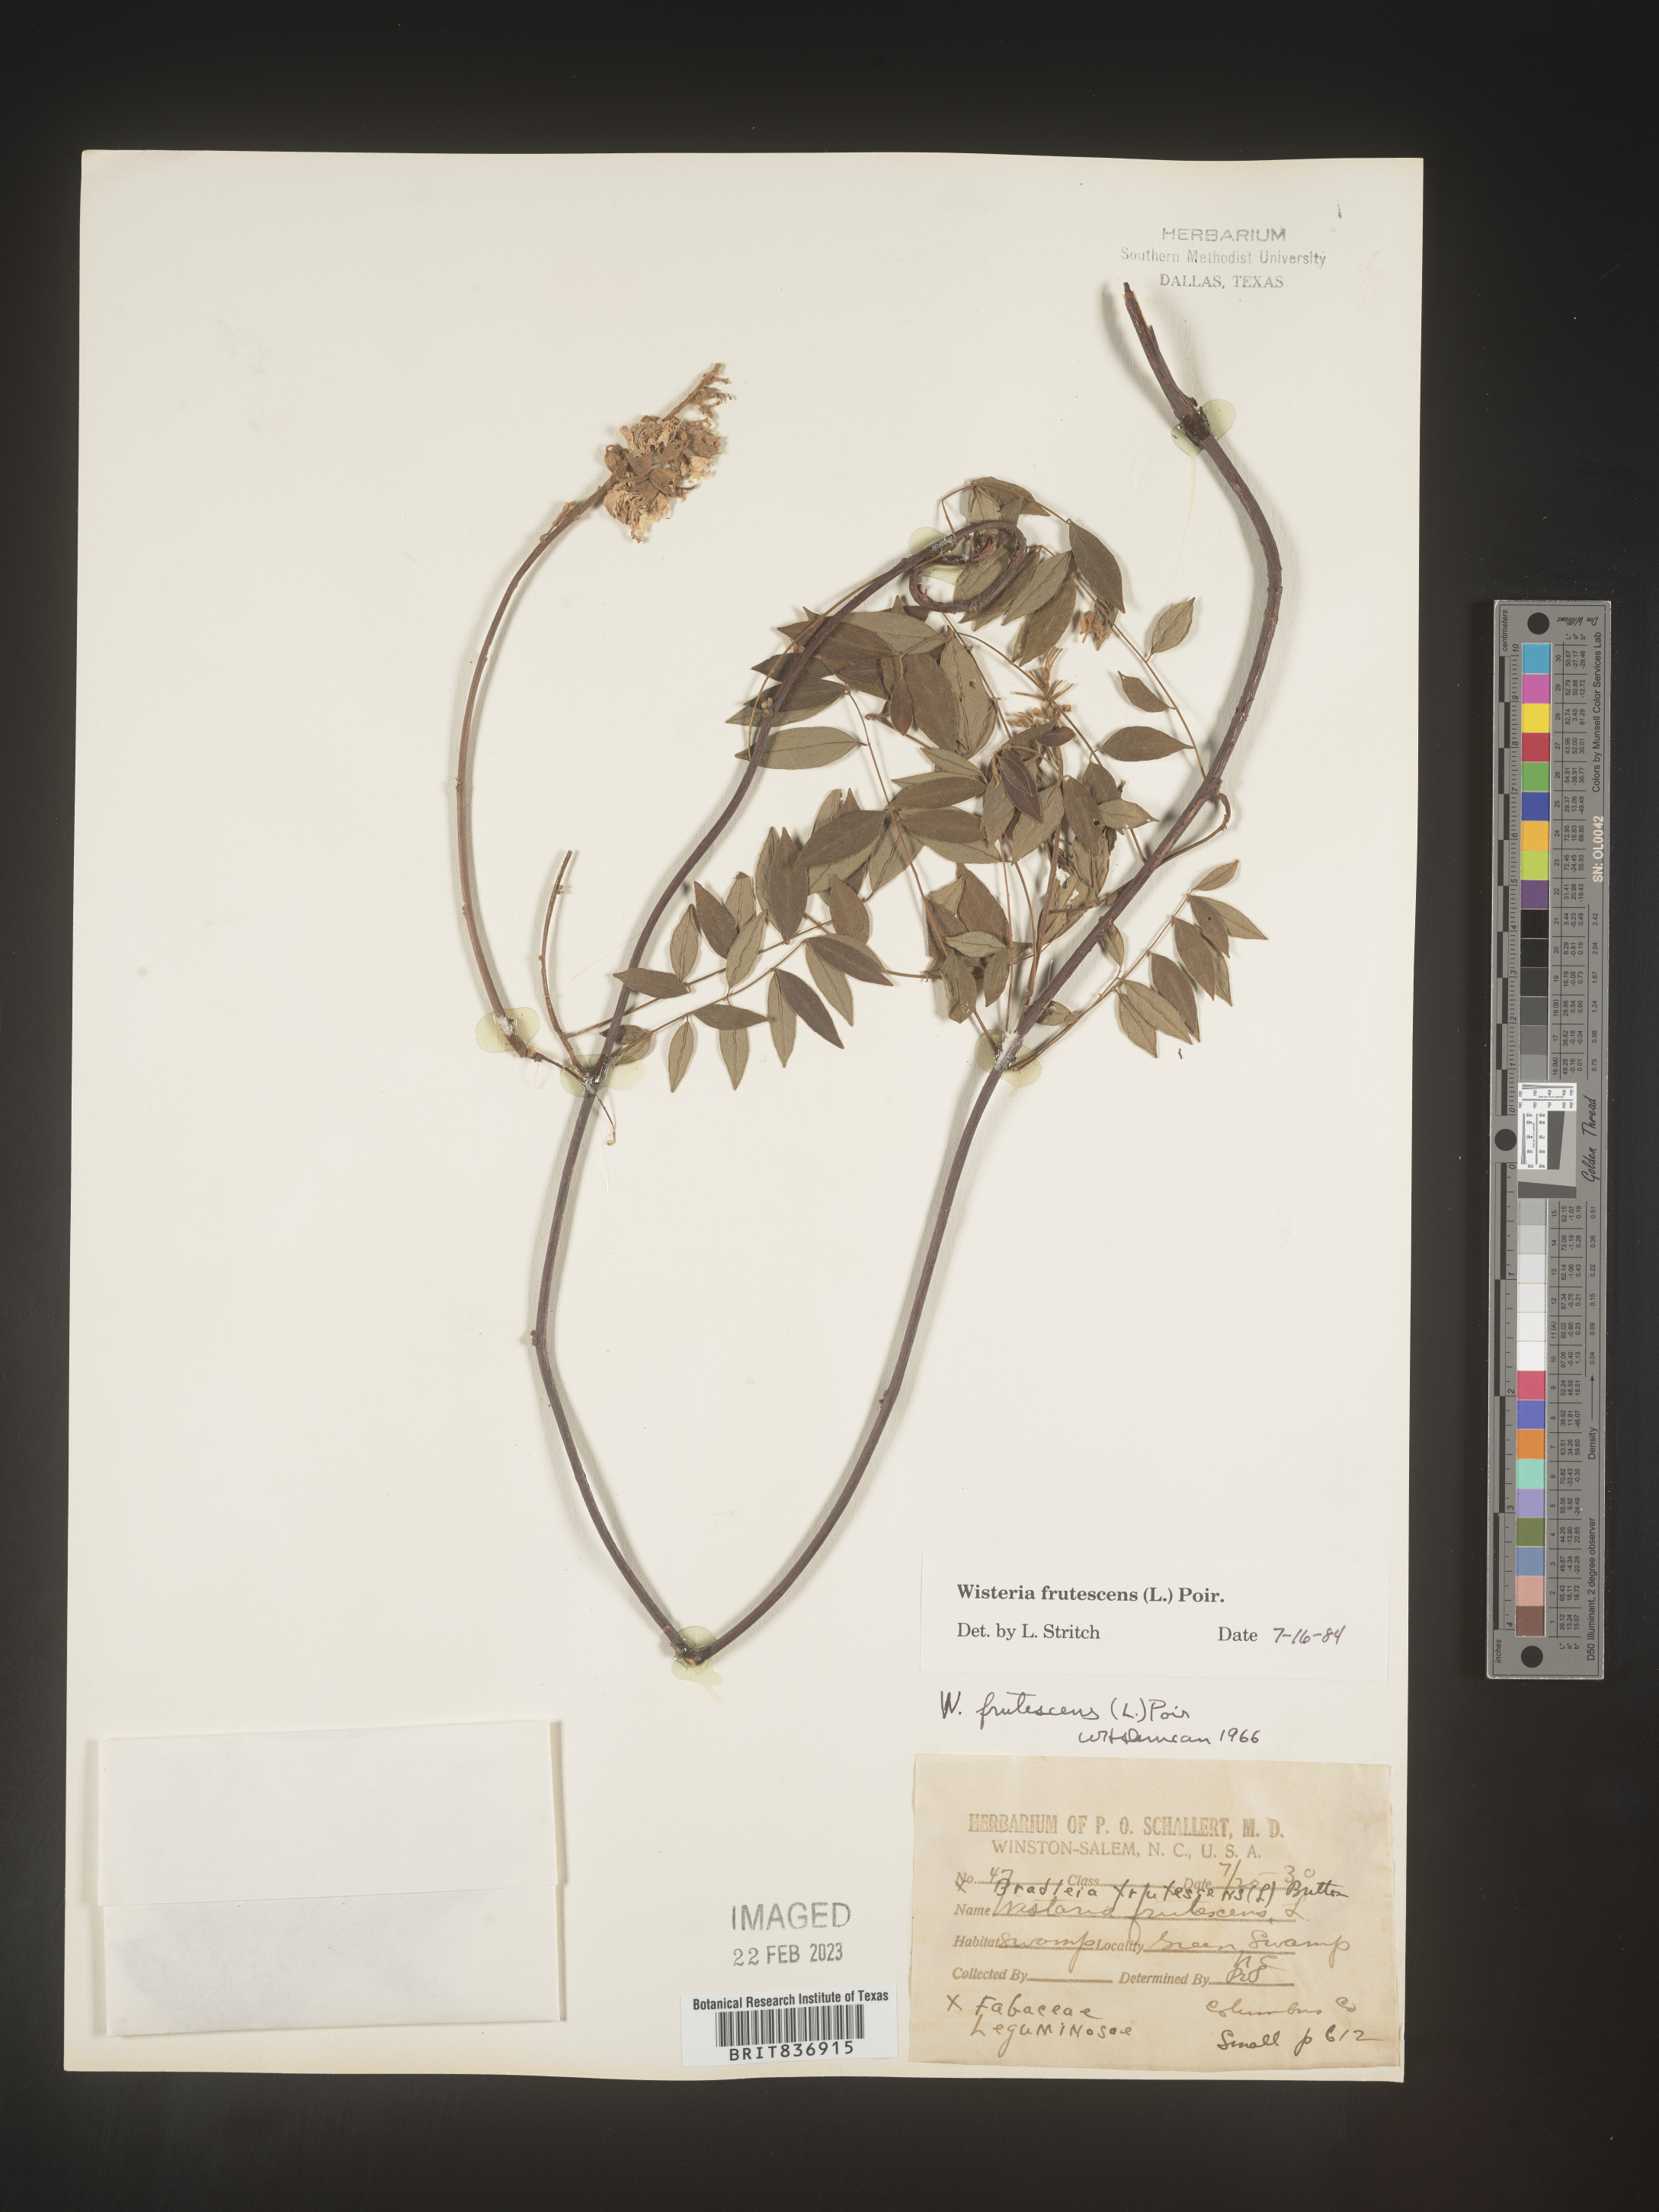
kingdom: Plantae
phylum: Tracheophyta
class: Magnoliopsida
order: Fabales
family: Fabaceae
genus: Wisteria
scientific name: Wisteria
